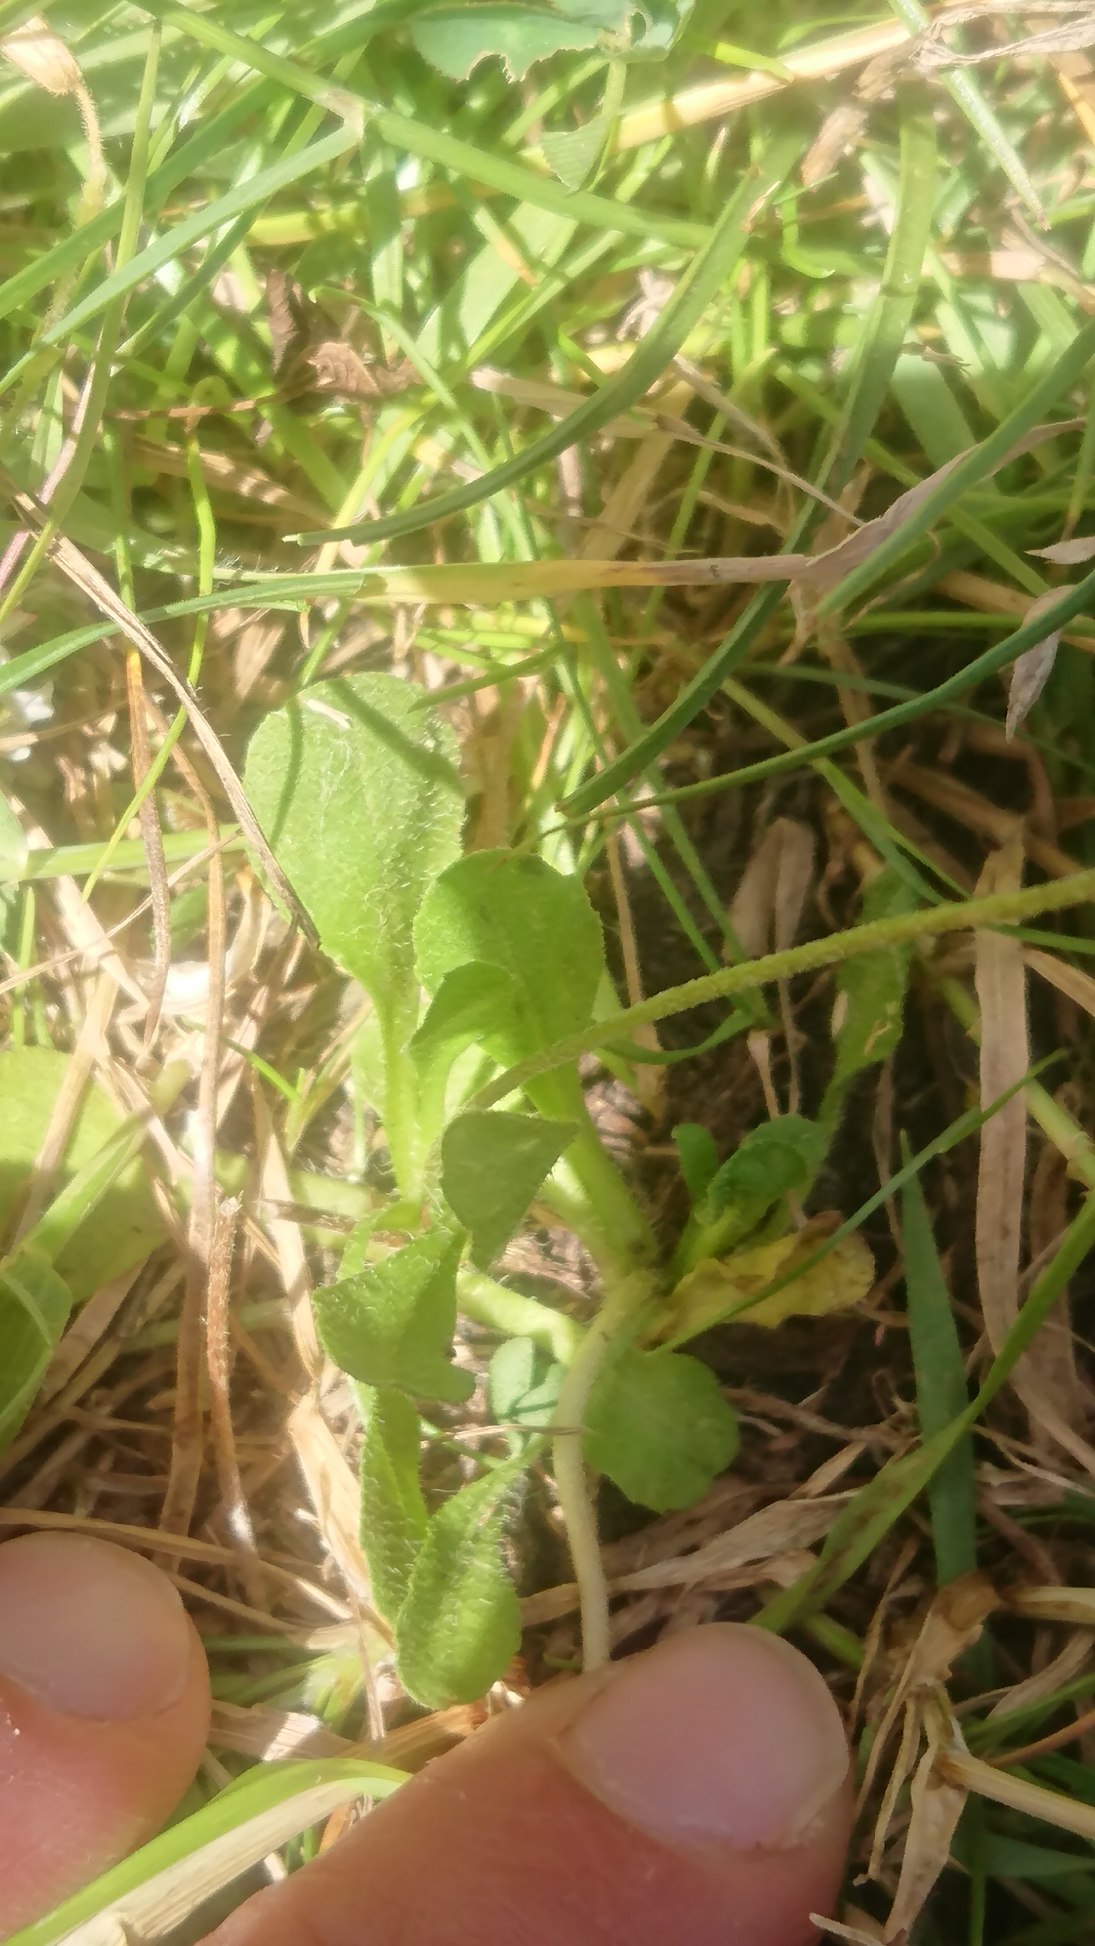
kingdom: Plantae
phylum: Tracheophyta
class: Magnoliopsida
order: Asterales
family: Asteraceae
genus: Bellis
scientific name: Bellis perennis
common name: Tusindfryd
